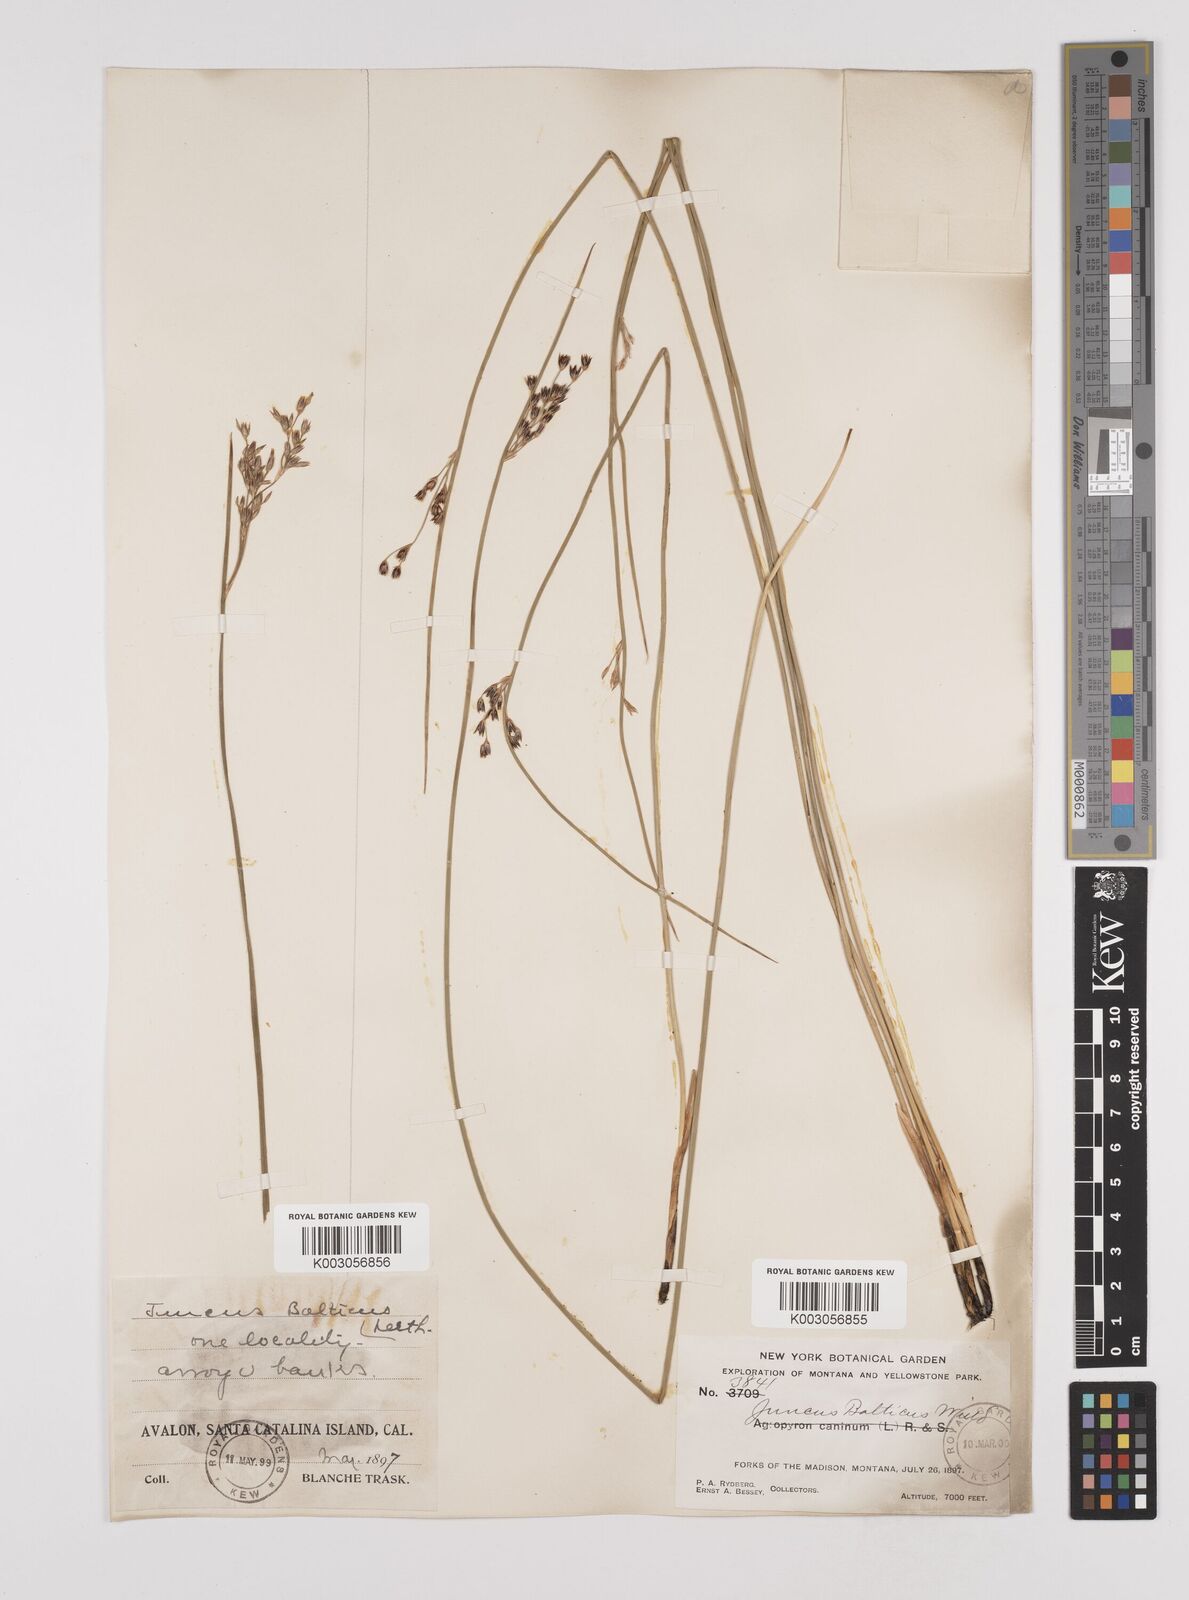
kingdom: Plantae
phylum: Tracheophyta
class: Liliopsida
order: Poales
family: Juncaceae
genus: Juncus
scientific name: Juncus balticus
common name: Baltic rush
